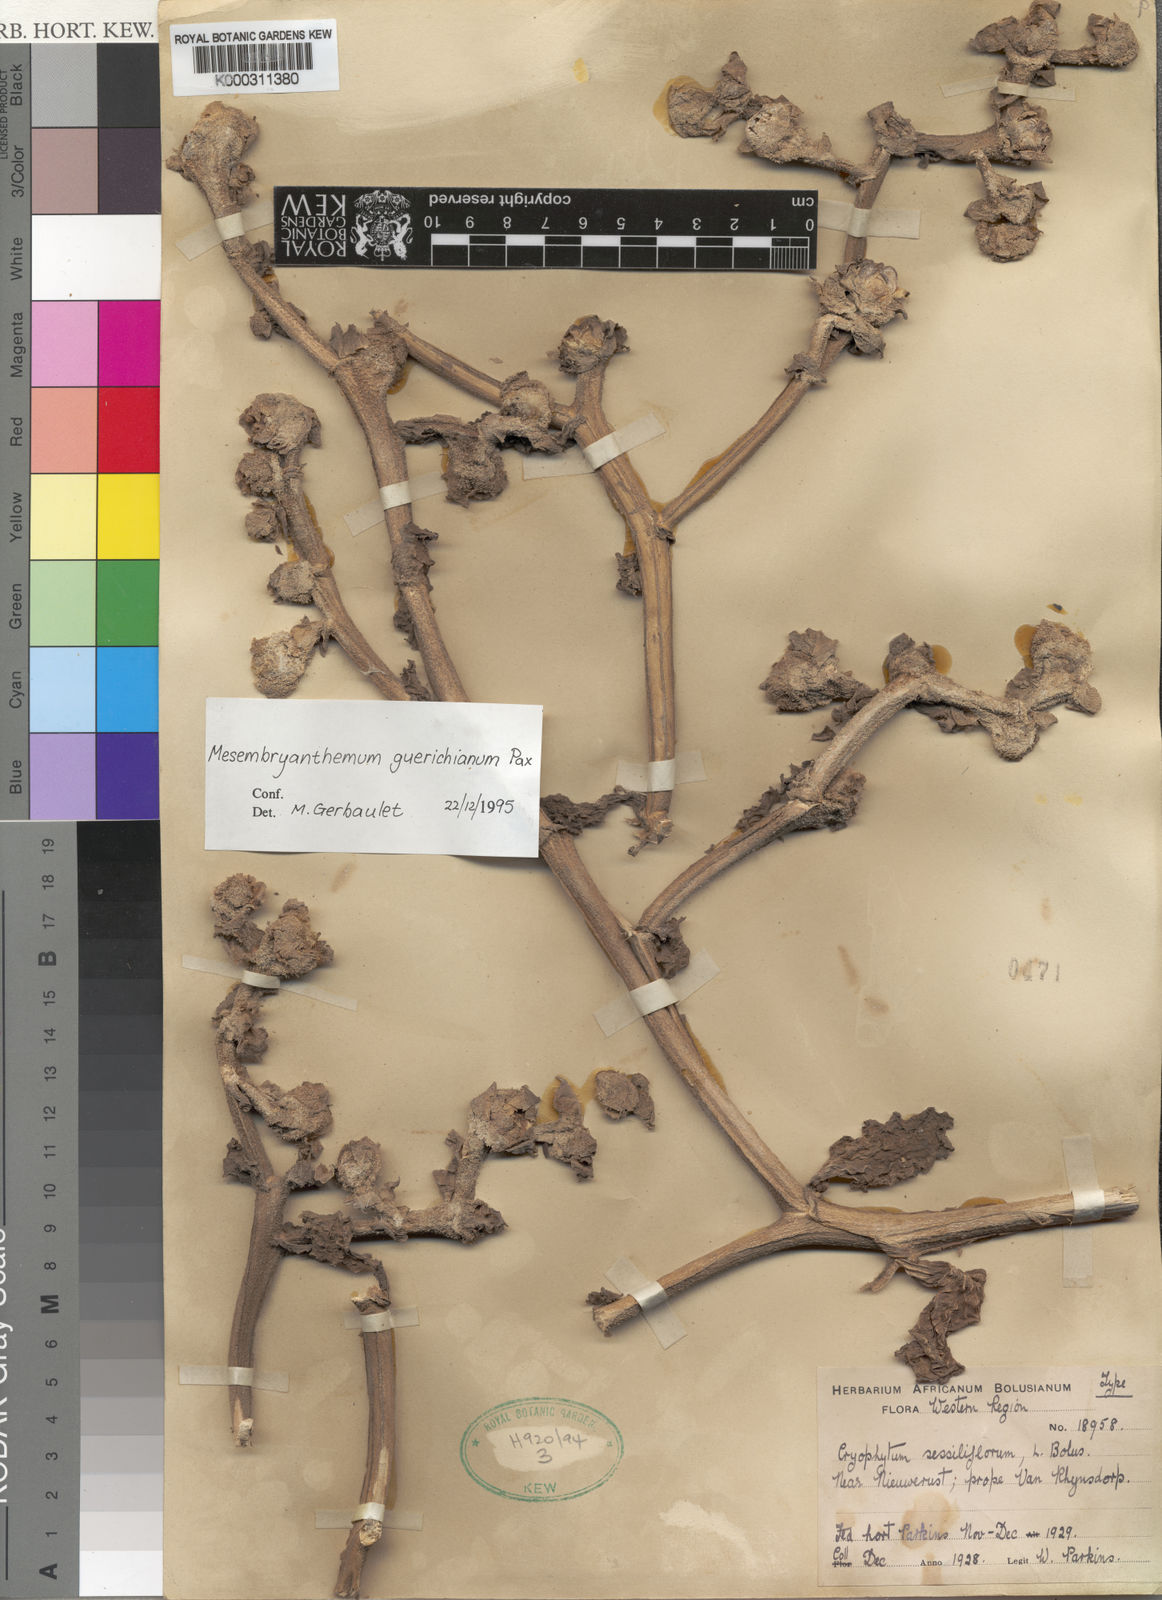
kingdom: Plantae
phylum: Tracheophyta
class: Magnoliopsida
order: Caryophyllales
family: Aizoaceae
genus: Mesembryanthemum
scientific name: Mesembryanthemum guerichianum
